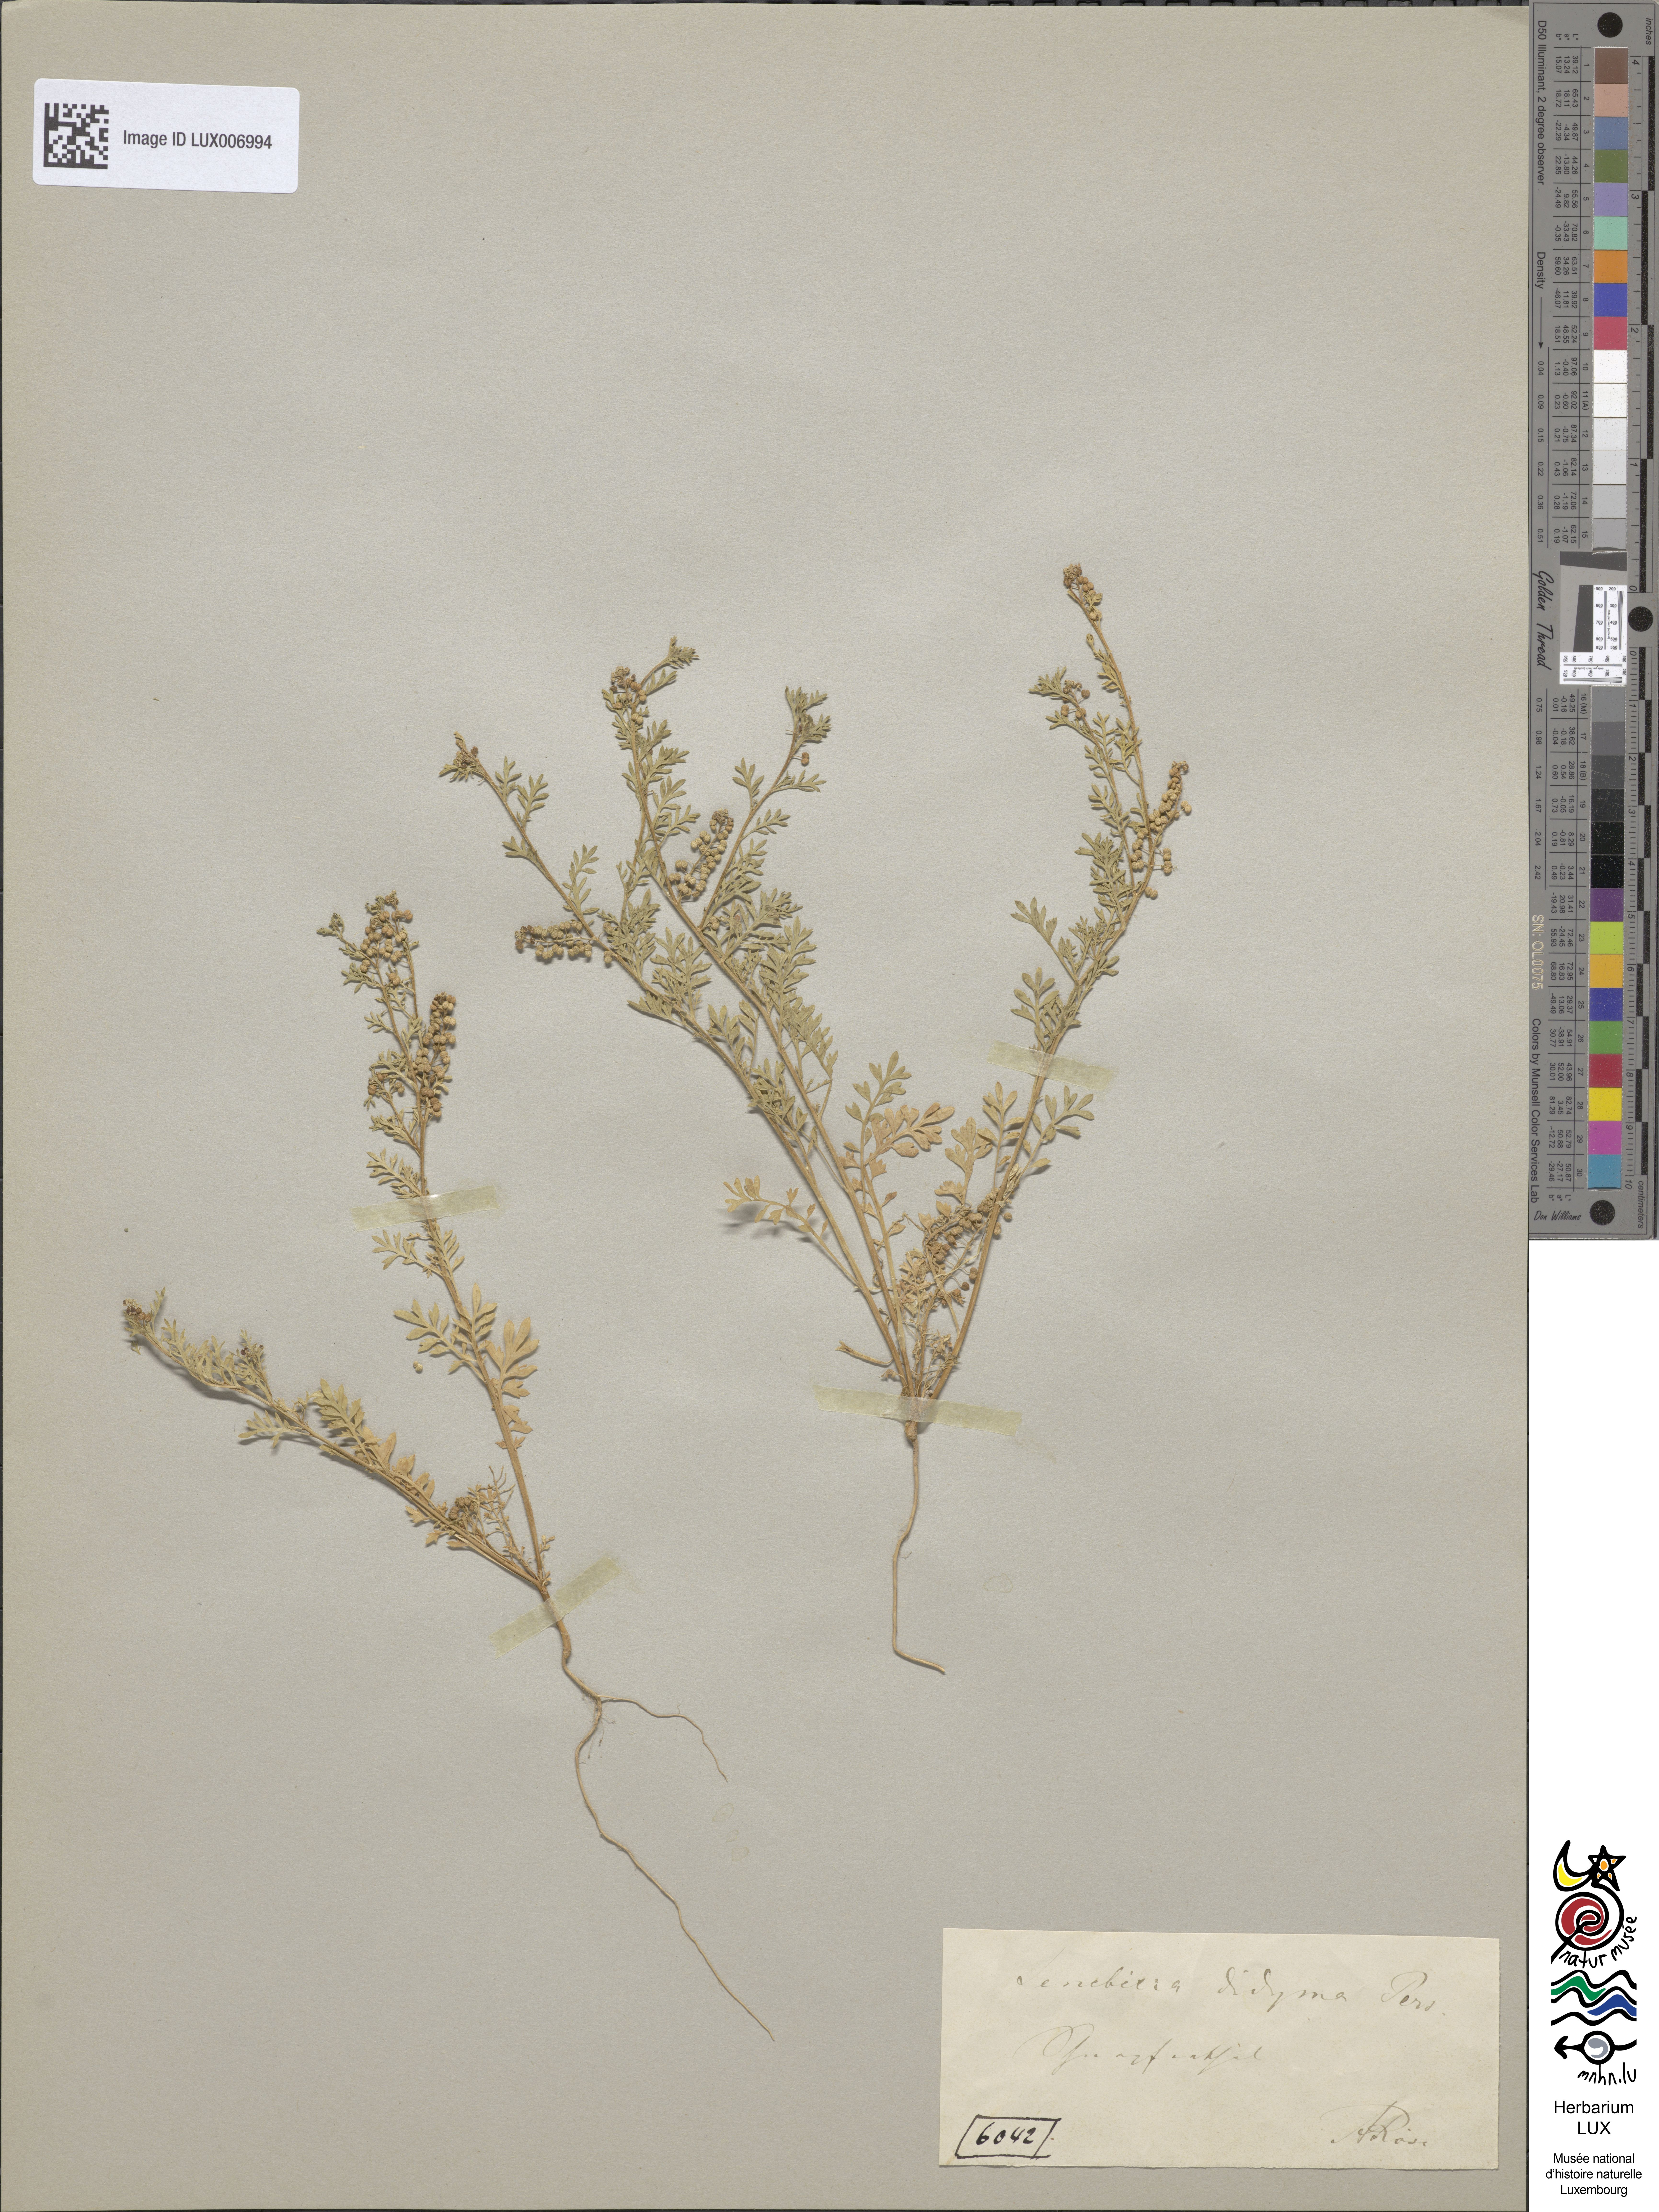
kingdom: Plantae
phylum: Tracheophyta
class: Magnoliopsida
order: Brassicales
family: Brassicaceae
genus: Lepidium
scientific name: Lepidium didymum
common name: Lesser swinecress
